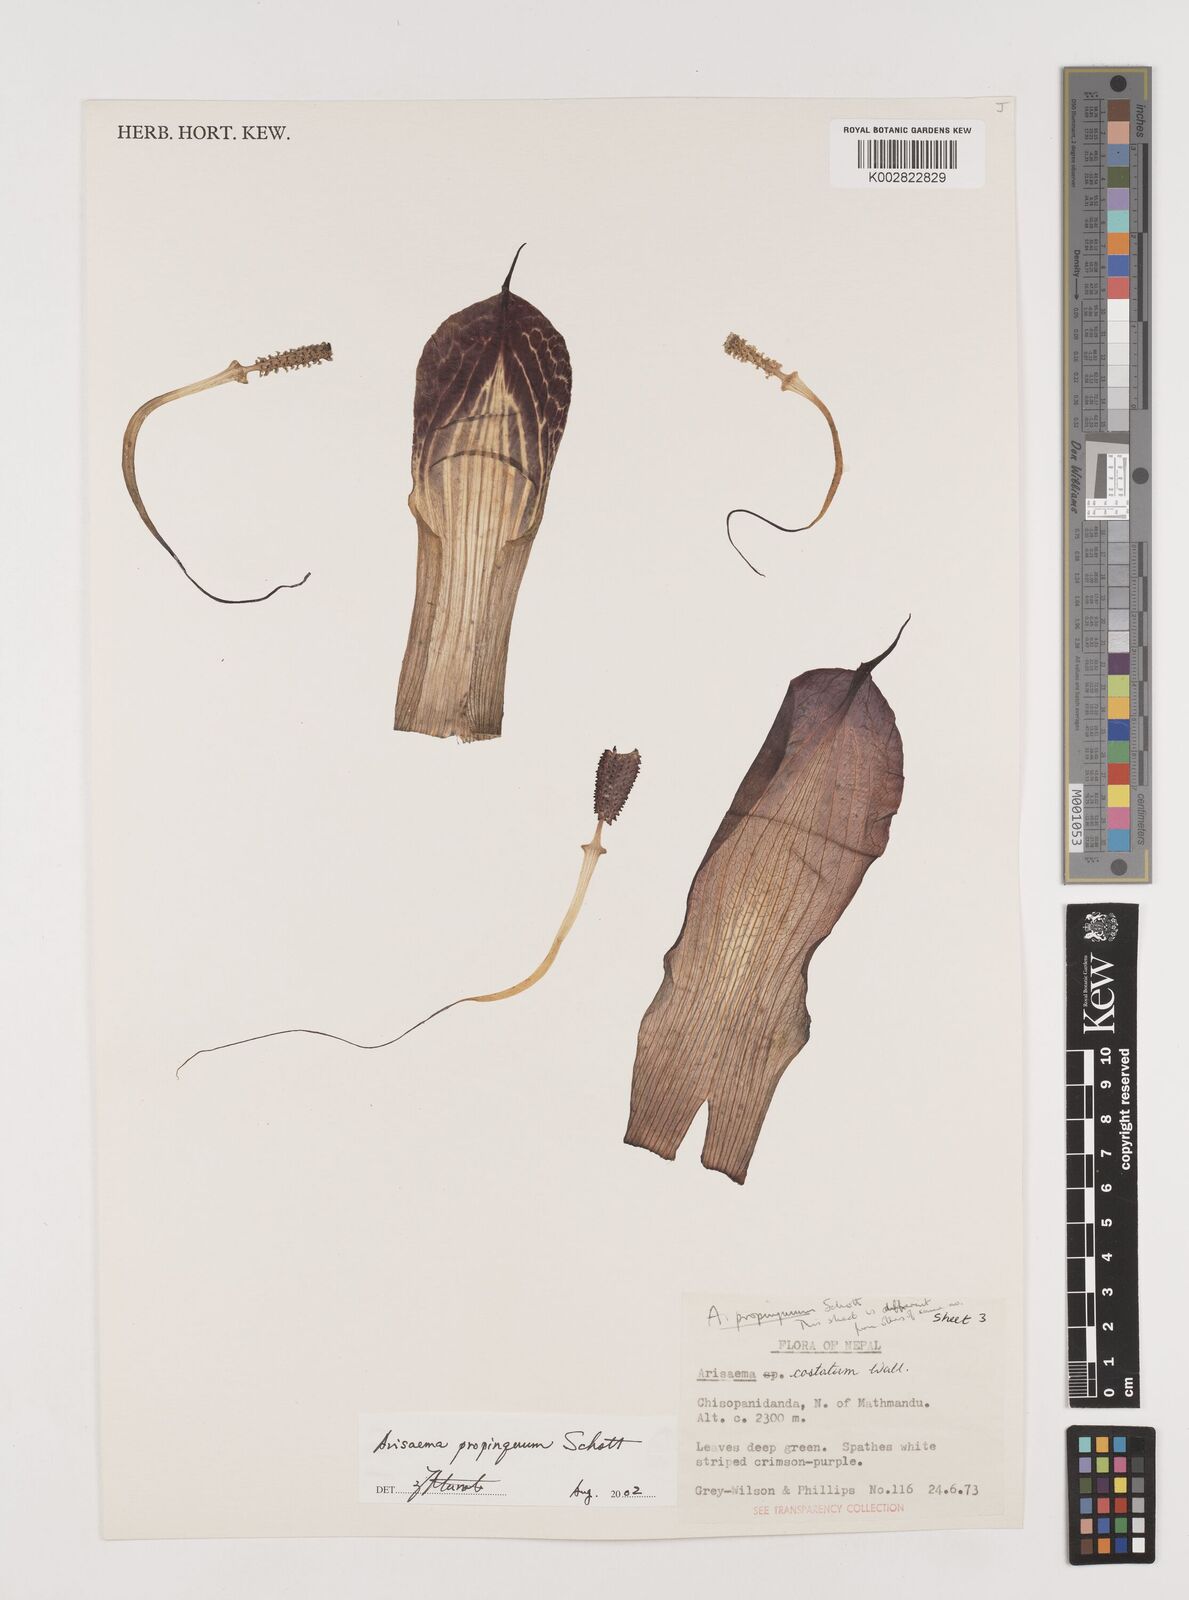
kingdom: Plantae
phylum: Tracheophyta
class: Liliopsida
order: Alismatales
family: Araceae
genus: Arisaema
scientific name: Arisaema costatum
